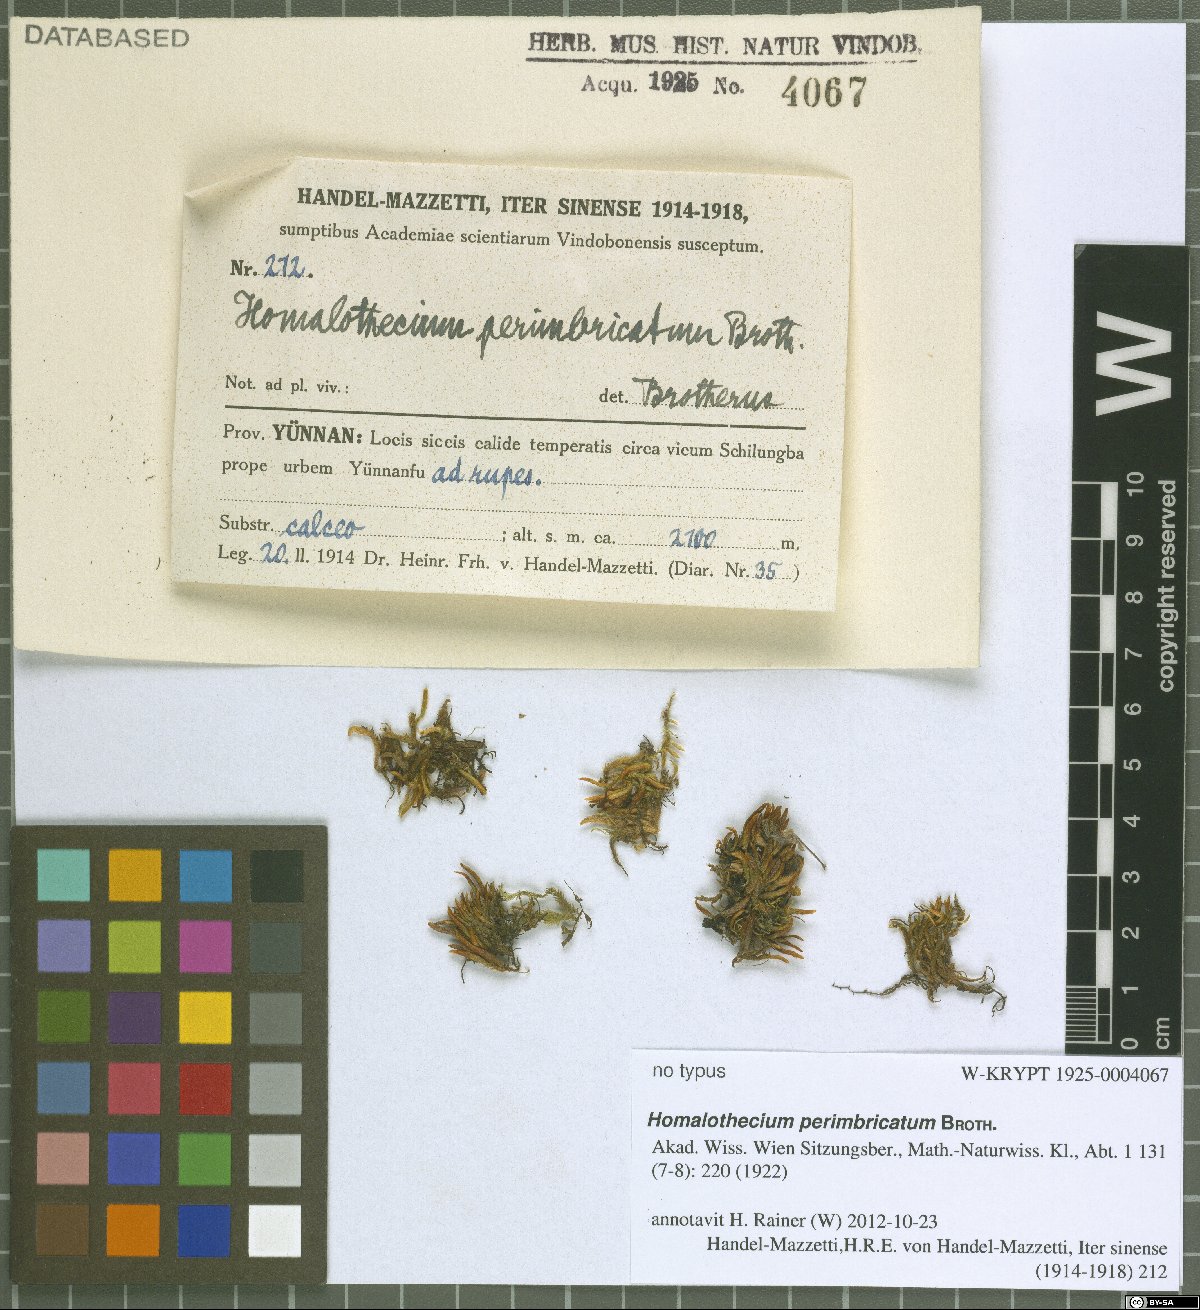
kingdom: Plantae
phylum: Bryophyta
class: Bryopsida
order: Hypnales
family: Brachytheciaceae
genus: Oticodium
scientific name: Oticodium laevisetum
